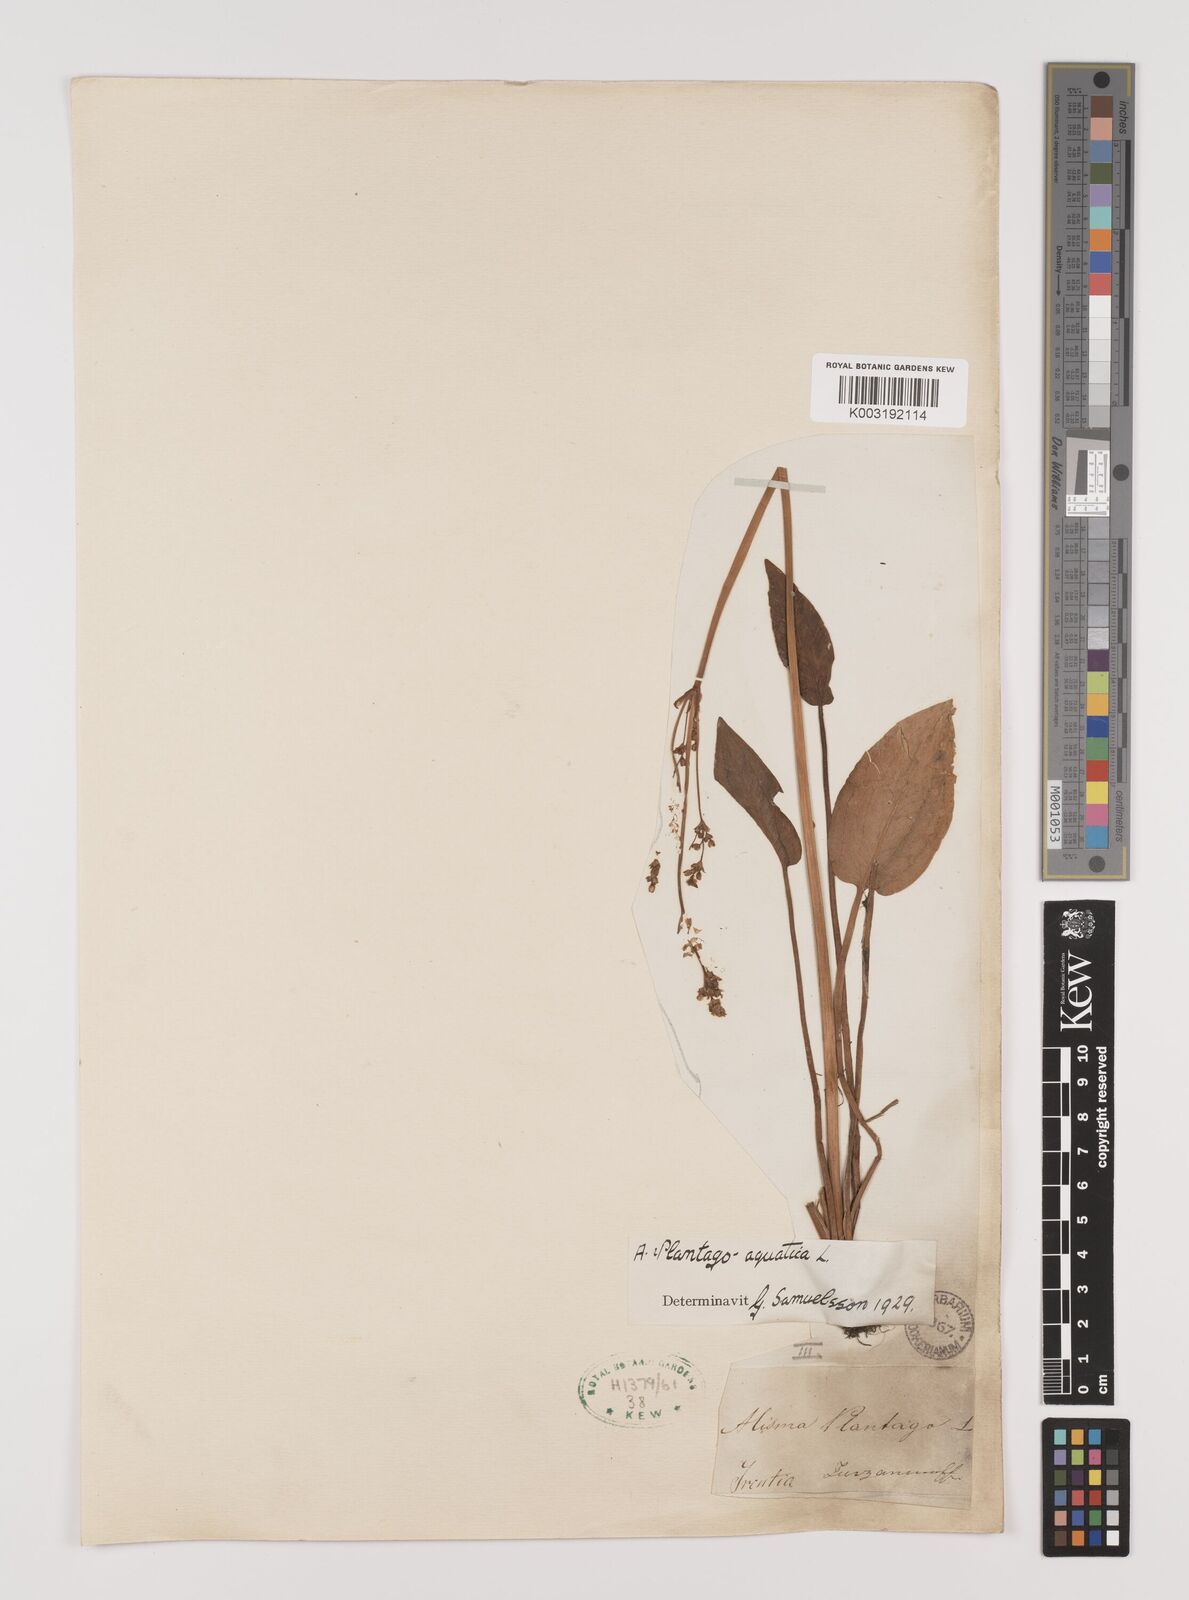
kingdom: Plantae
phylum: Tracheophyta
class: Liliopsida
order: Alismatales
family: Alismataceae
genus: Alisma
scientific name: Alisma plantago-aquatica
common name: Water-plantain
